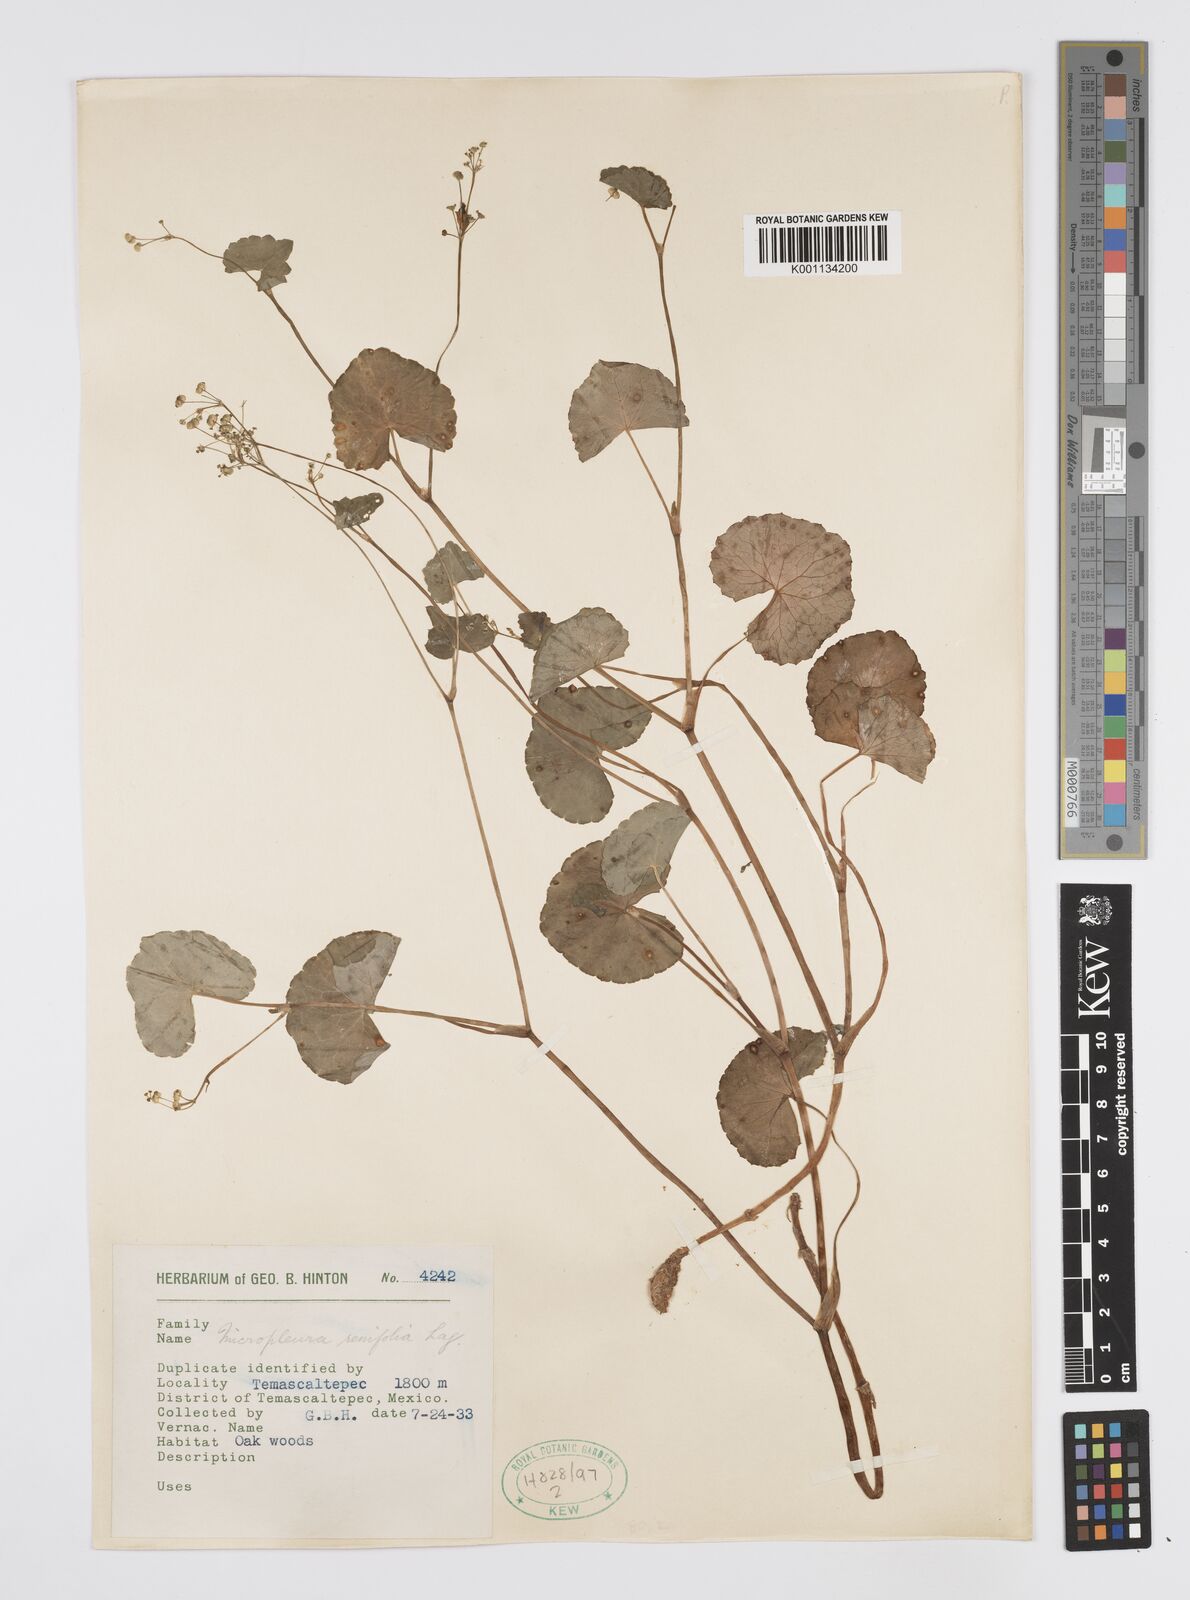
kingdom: Plantae
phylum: Tracheophyta
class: Magnoliopsida
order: Apiales
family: Apiaceae
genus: Micropleura
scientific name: Micropleura renifolia
